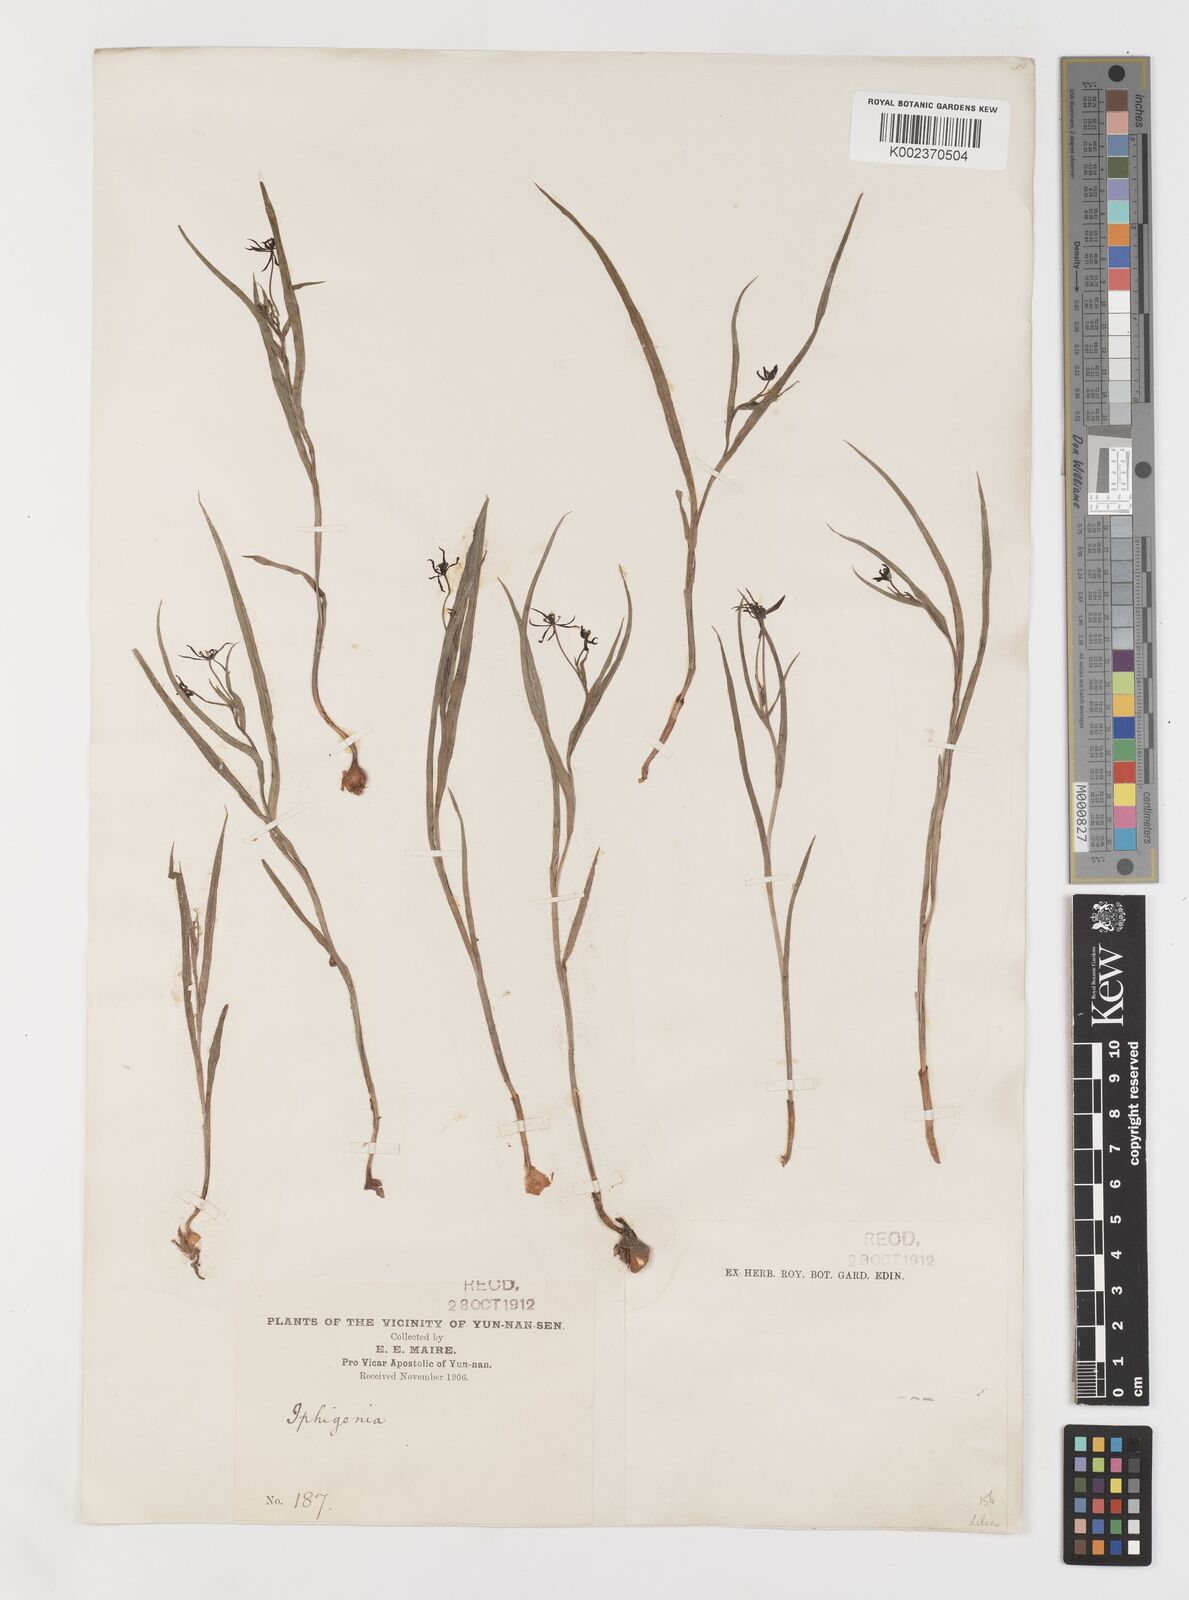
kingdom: Plantae
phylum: Tracheophyta
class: Liliopsida
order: Liliales
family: Colchicaceae
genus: Iphigenia
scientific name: Iphigenia indica
